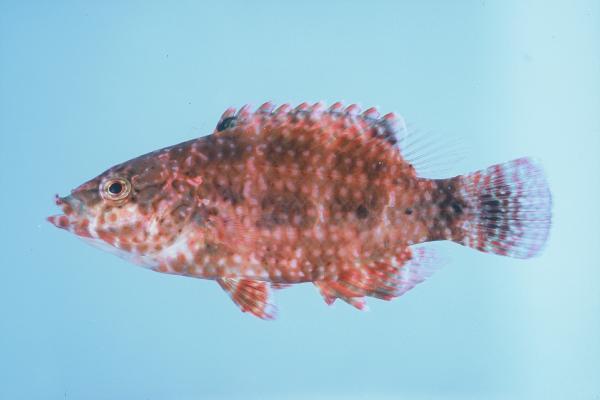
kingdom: Animalia
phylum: Chordata
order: Perciformes
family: Labridae
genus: Cheilinus
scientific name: Cheilinus oxycephalus
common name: Snooty wrasse
